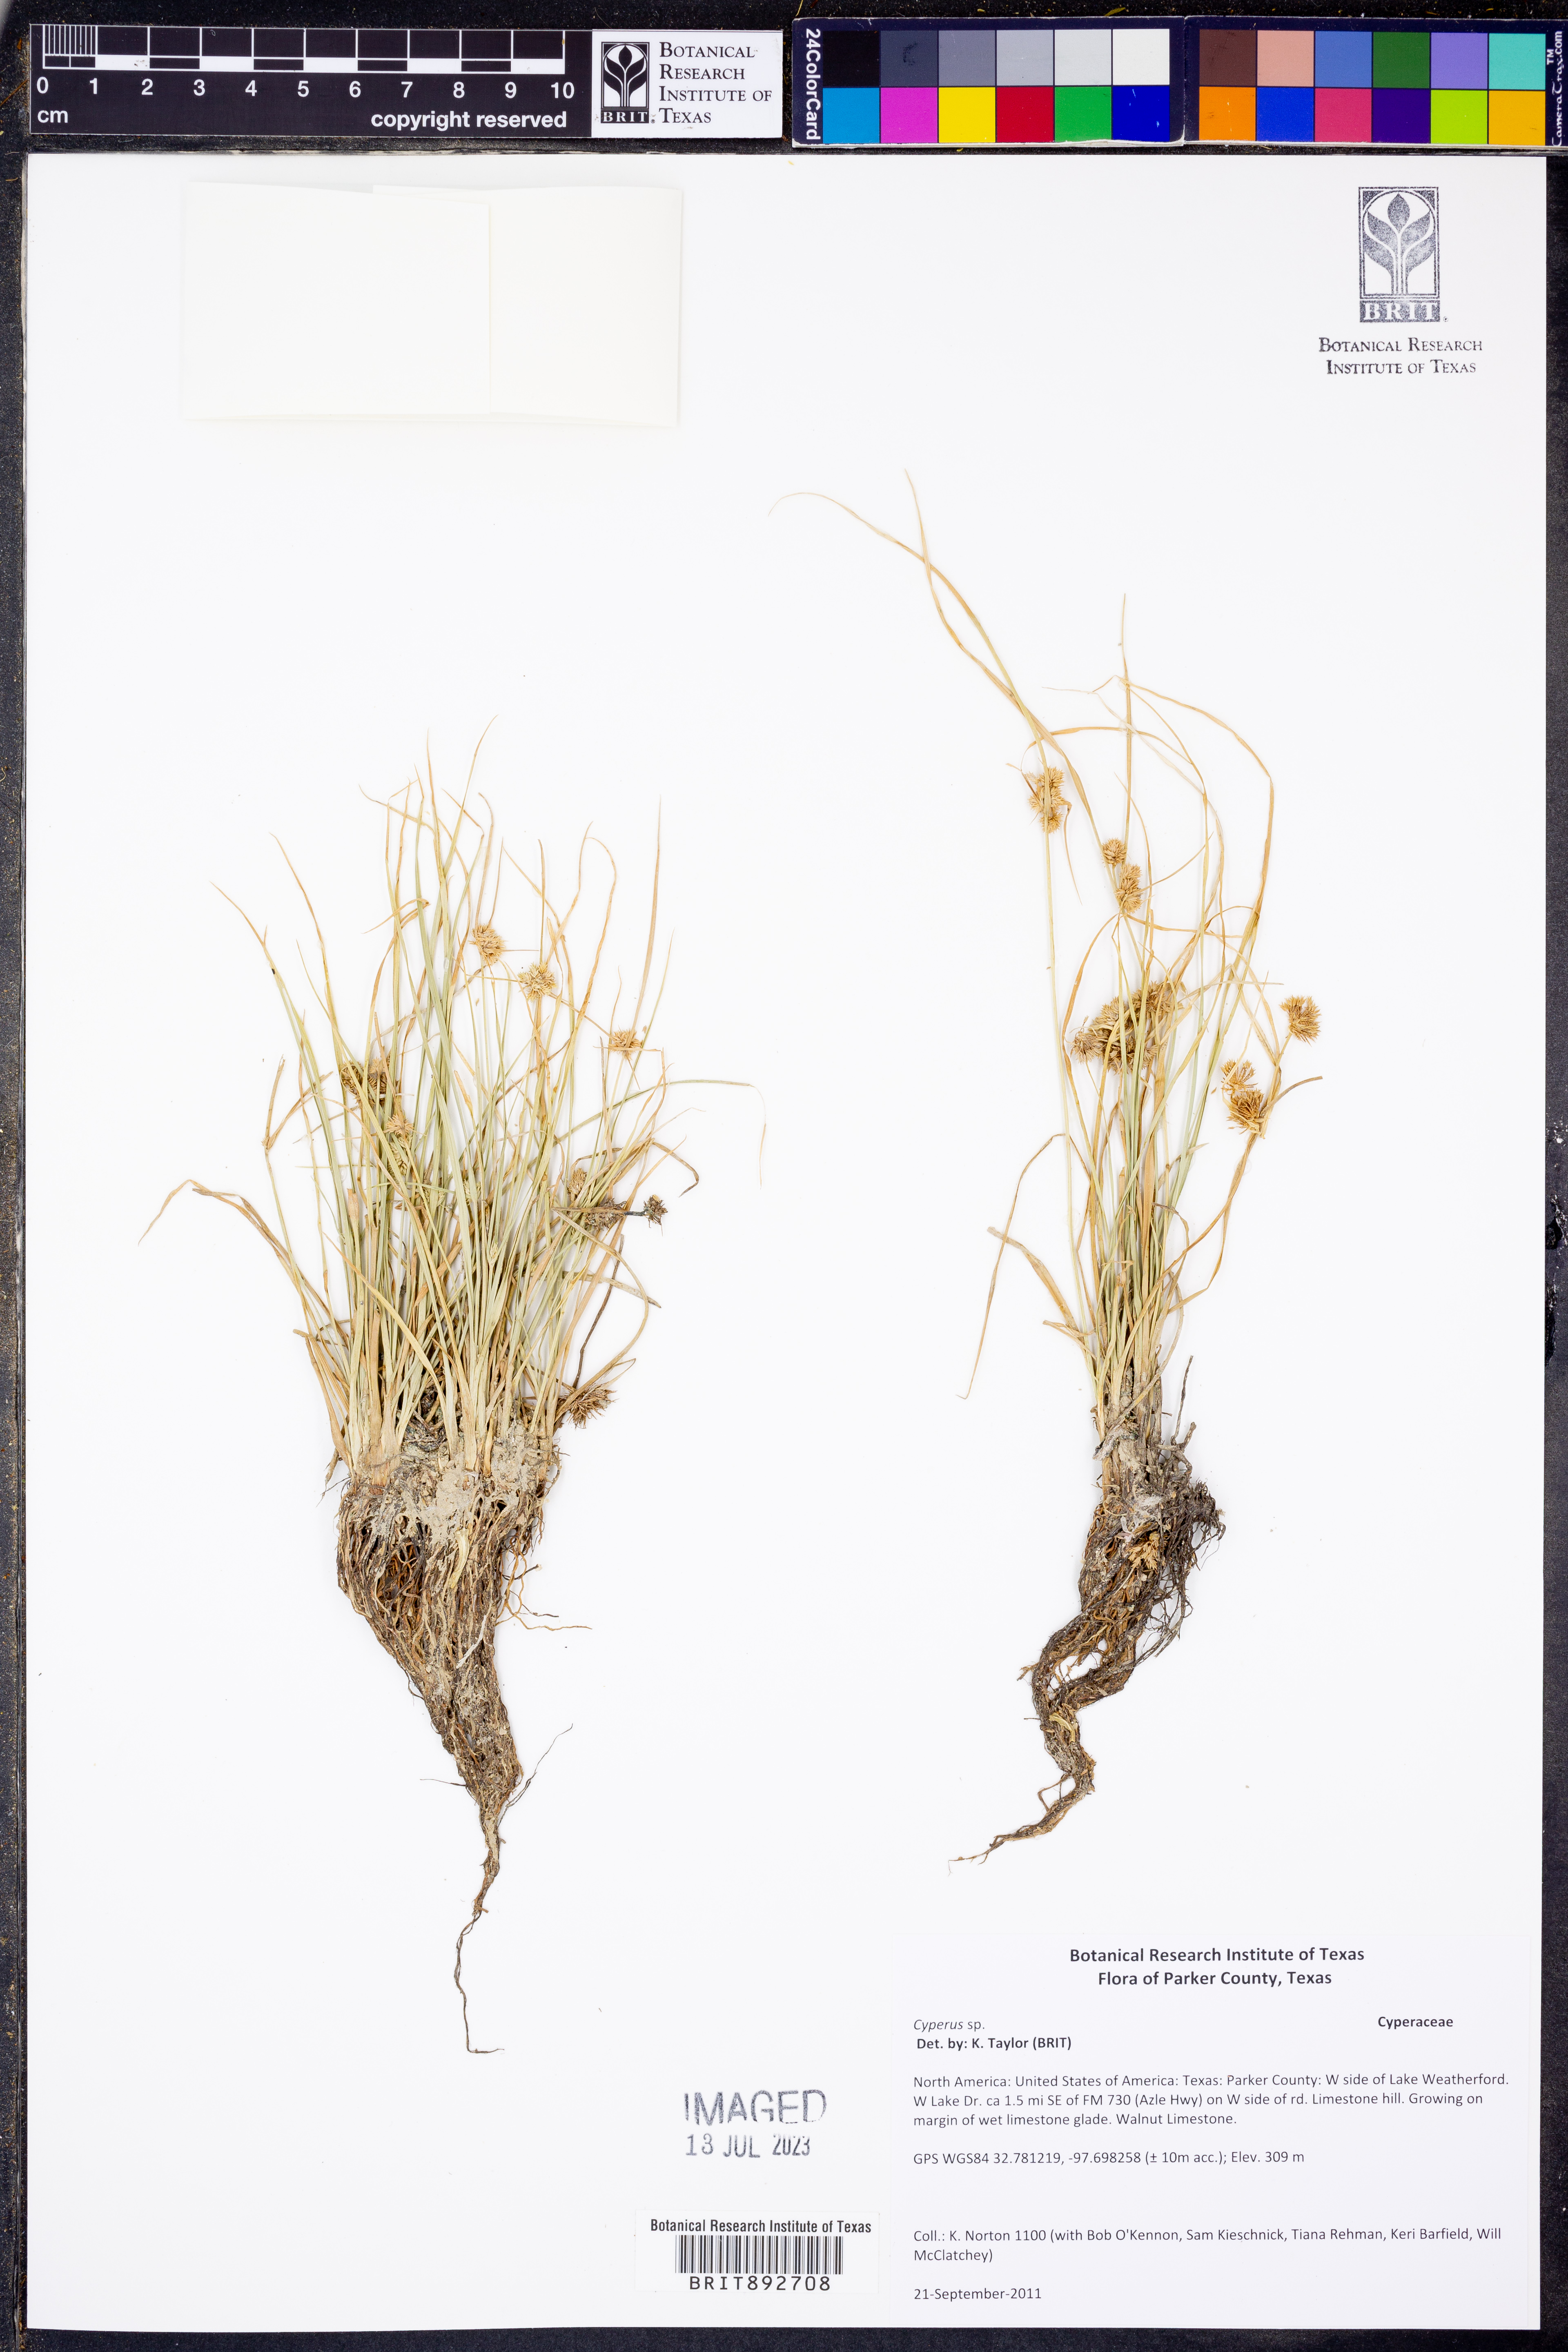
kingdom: Plantae
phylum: Tracheophyta
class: Liliopsida
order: Poales
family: Cyperaceae
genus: Cyperus
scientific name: Cyperus reflexus
